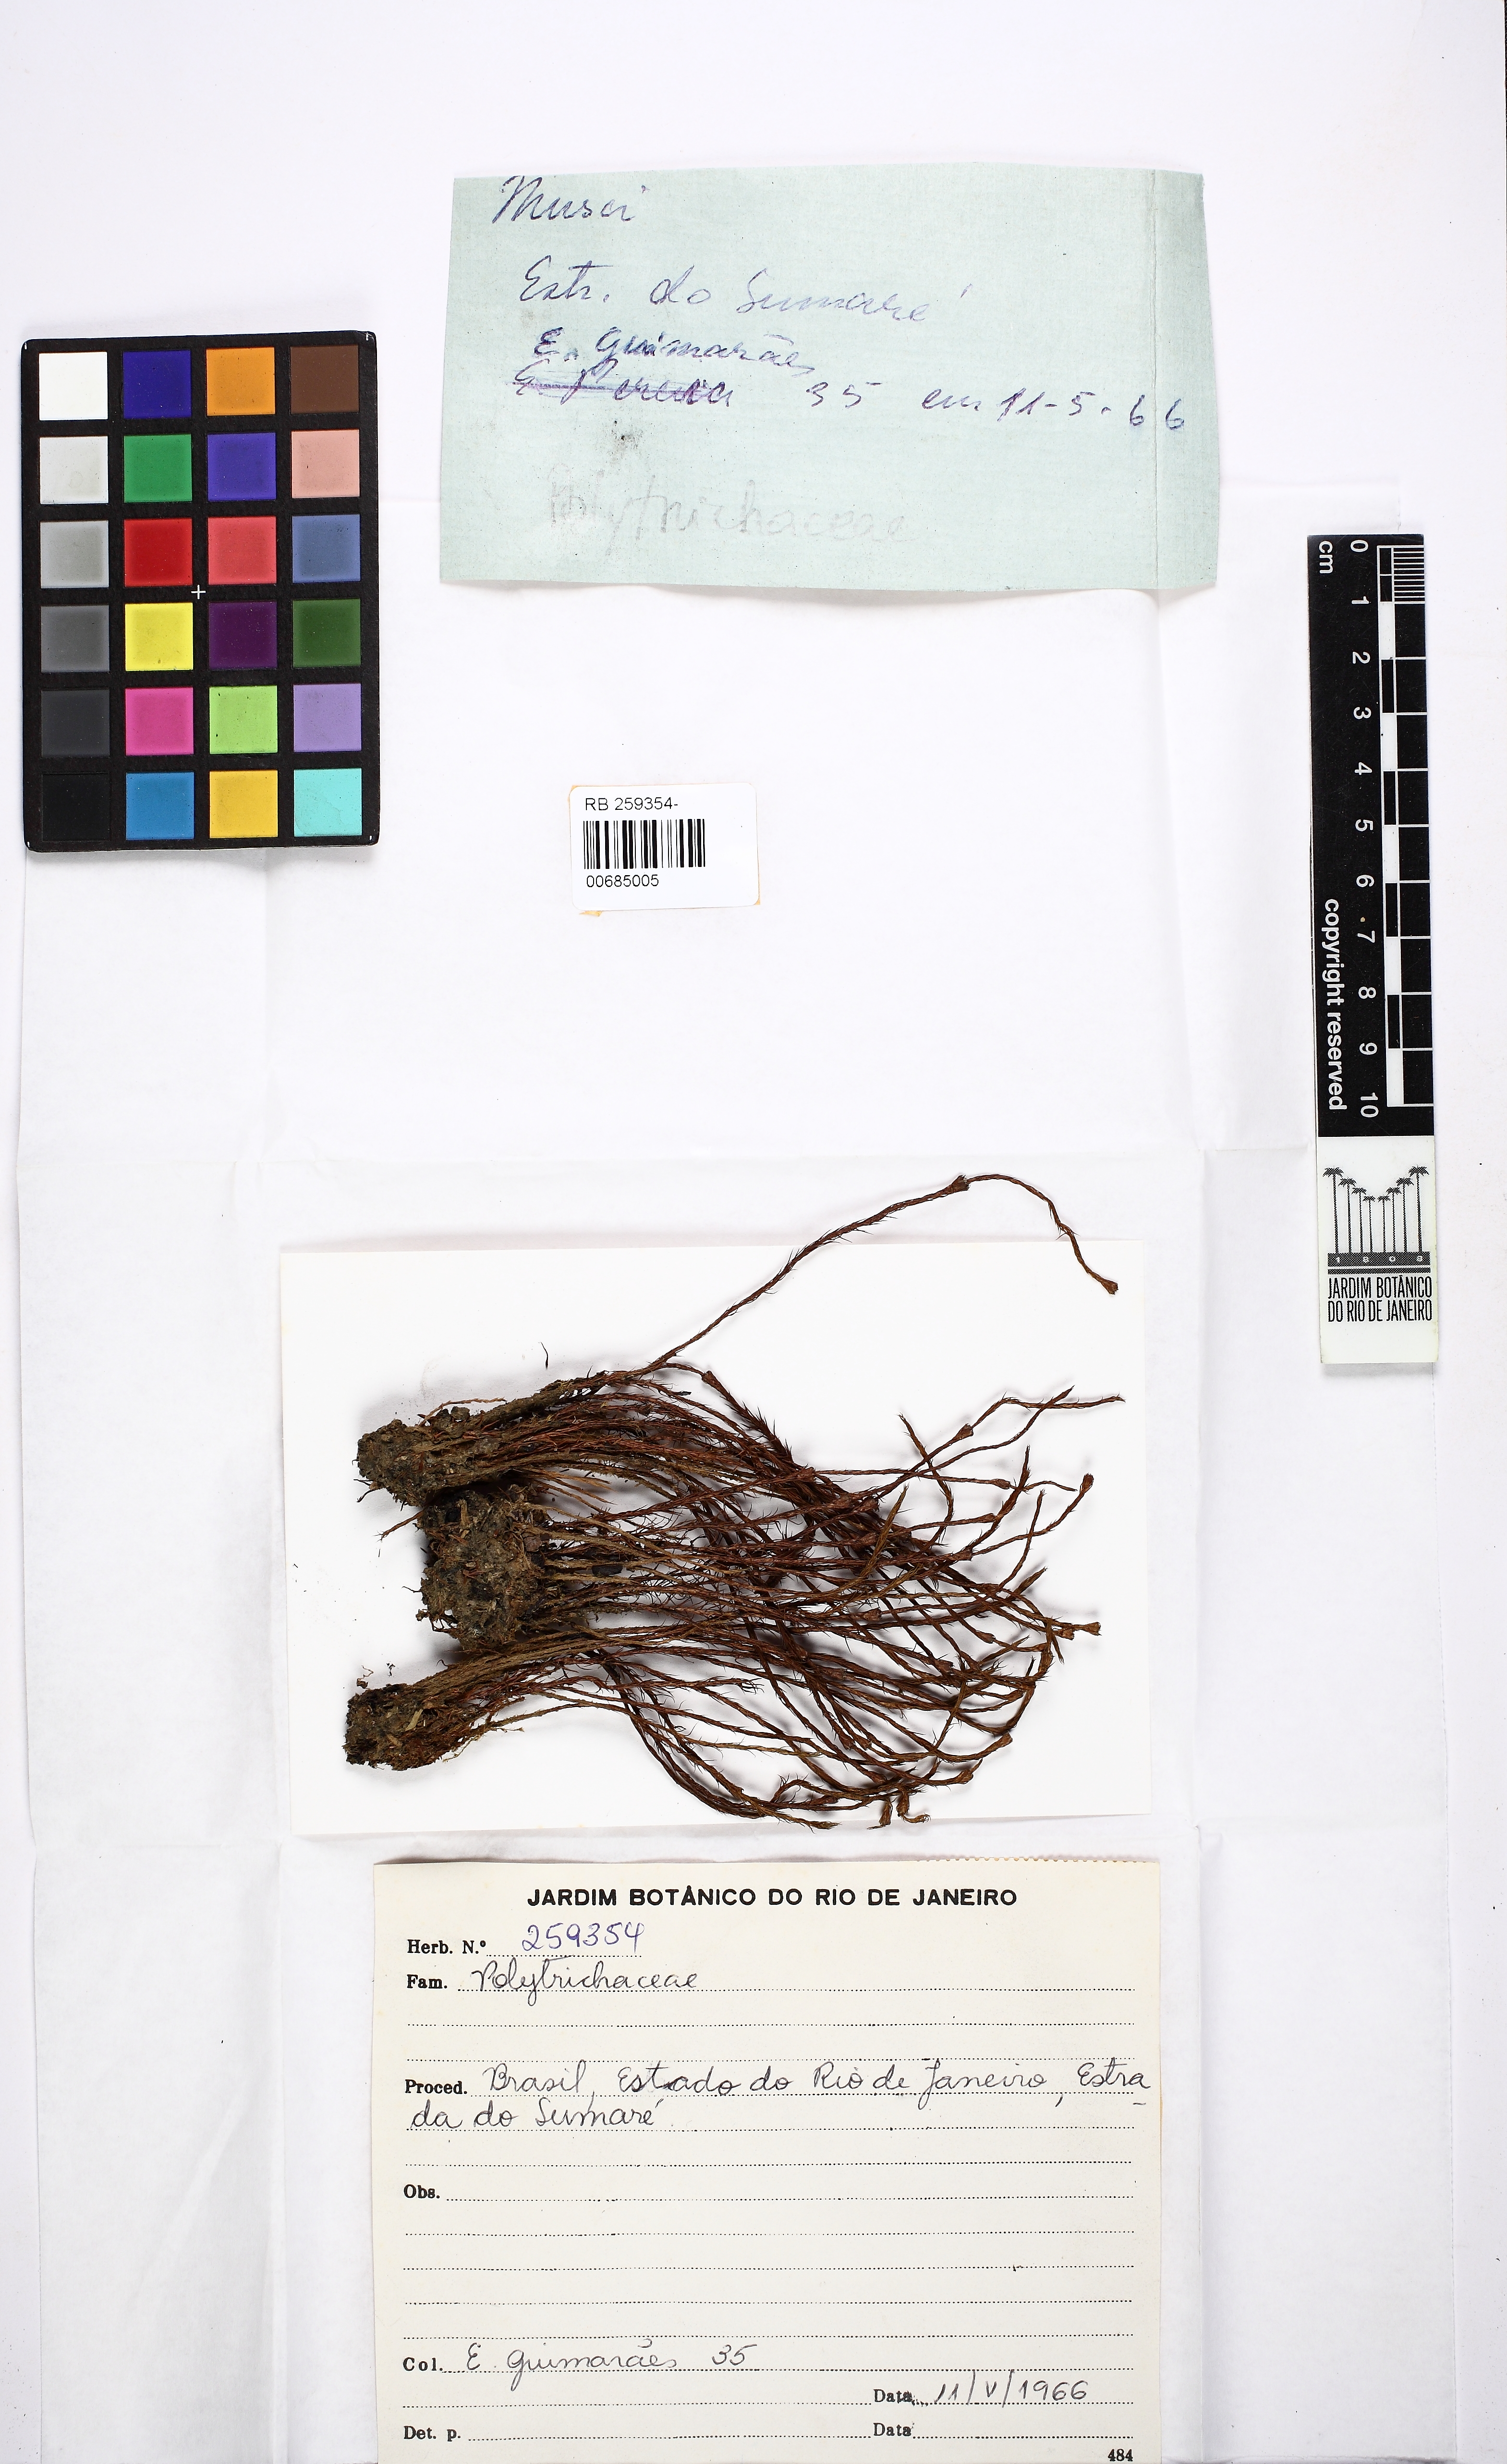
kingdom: Plantae
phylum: Bryophyta
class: Polytrichopsida
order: Polytrichales
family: Polytrichaceae
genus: Polytrichum
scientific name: Polytrichum juniperinum
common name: Juniper haircap moss
